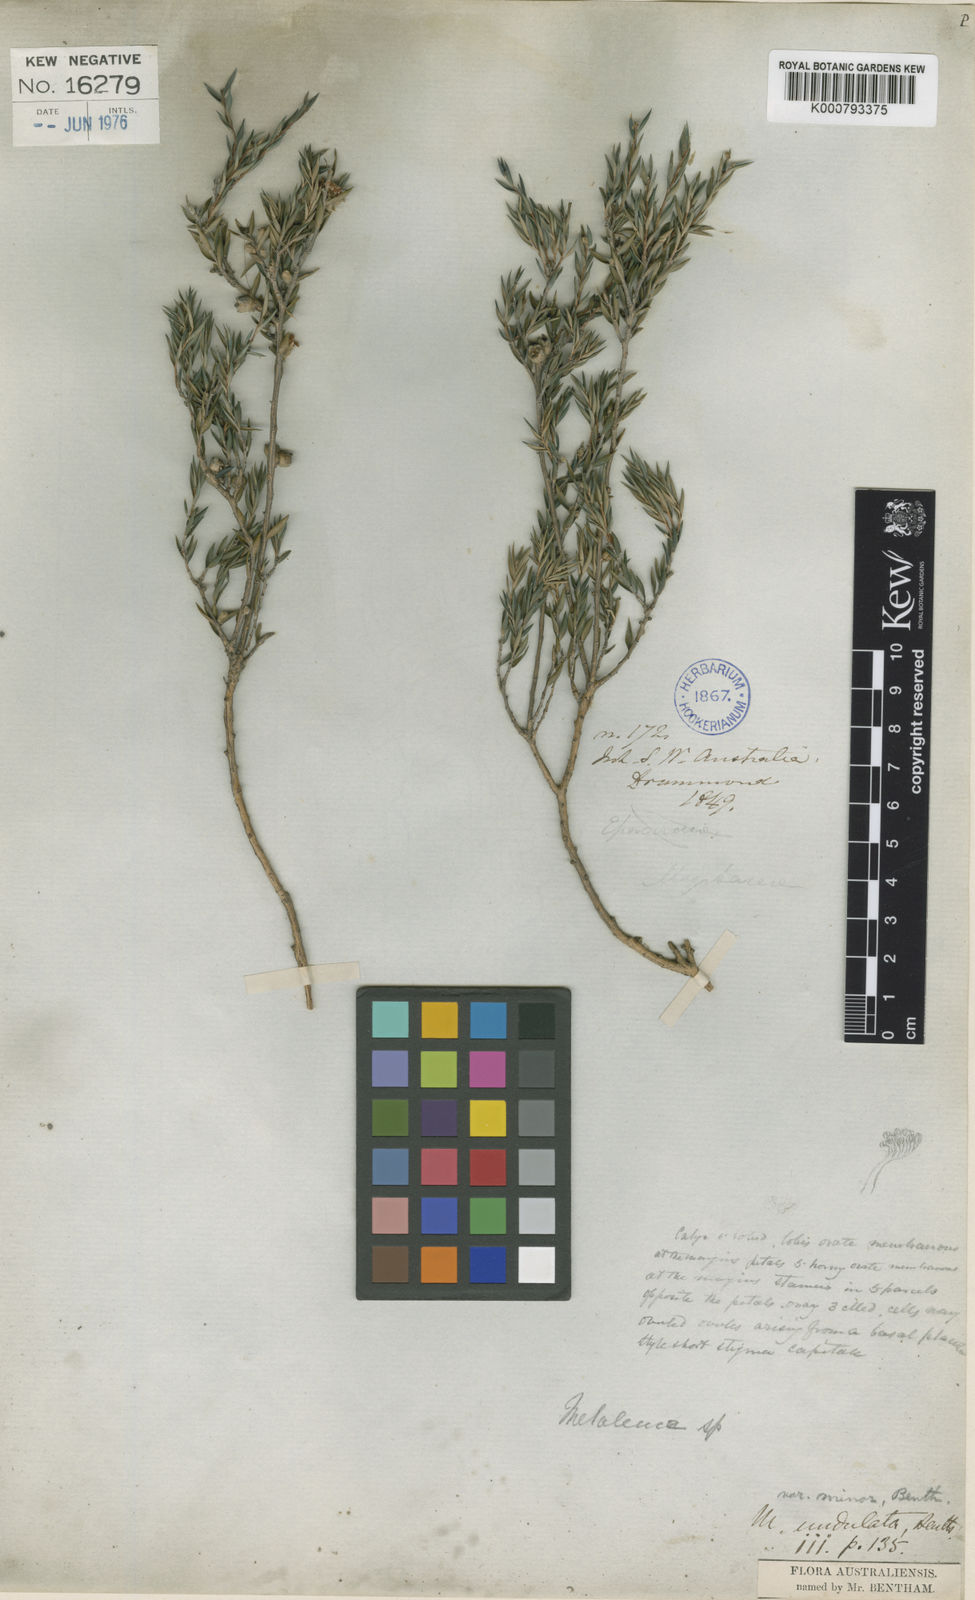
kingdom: Plantae
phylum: Tracheophyta
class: Magnoliopsida
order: Myrtales
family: Myrtaceae
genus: Melaleuca
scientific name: Melaleuca undulata
